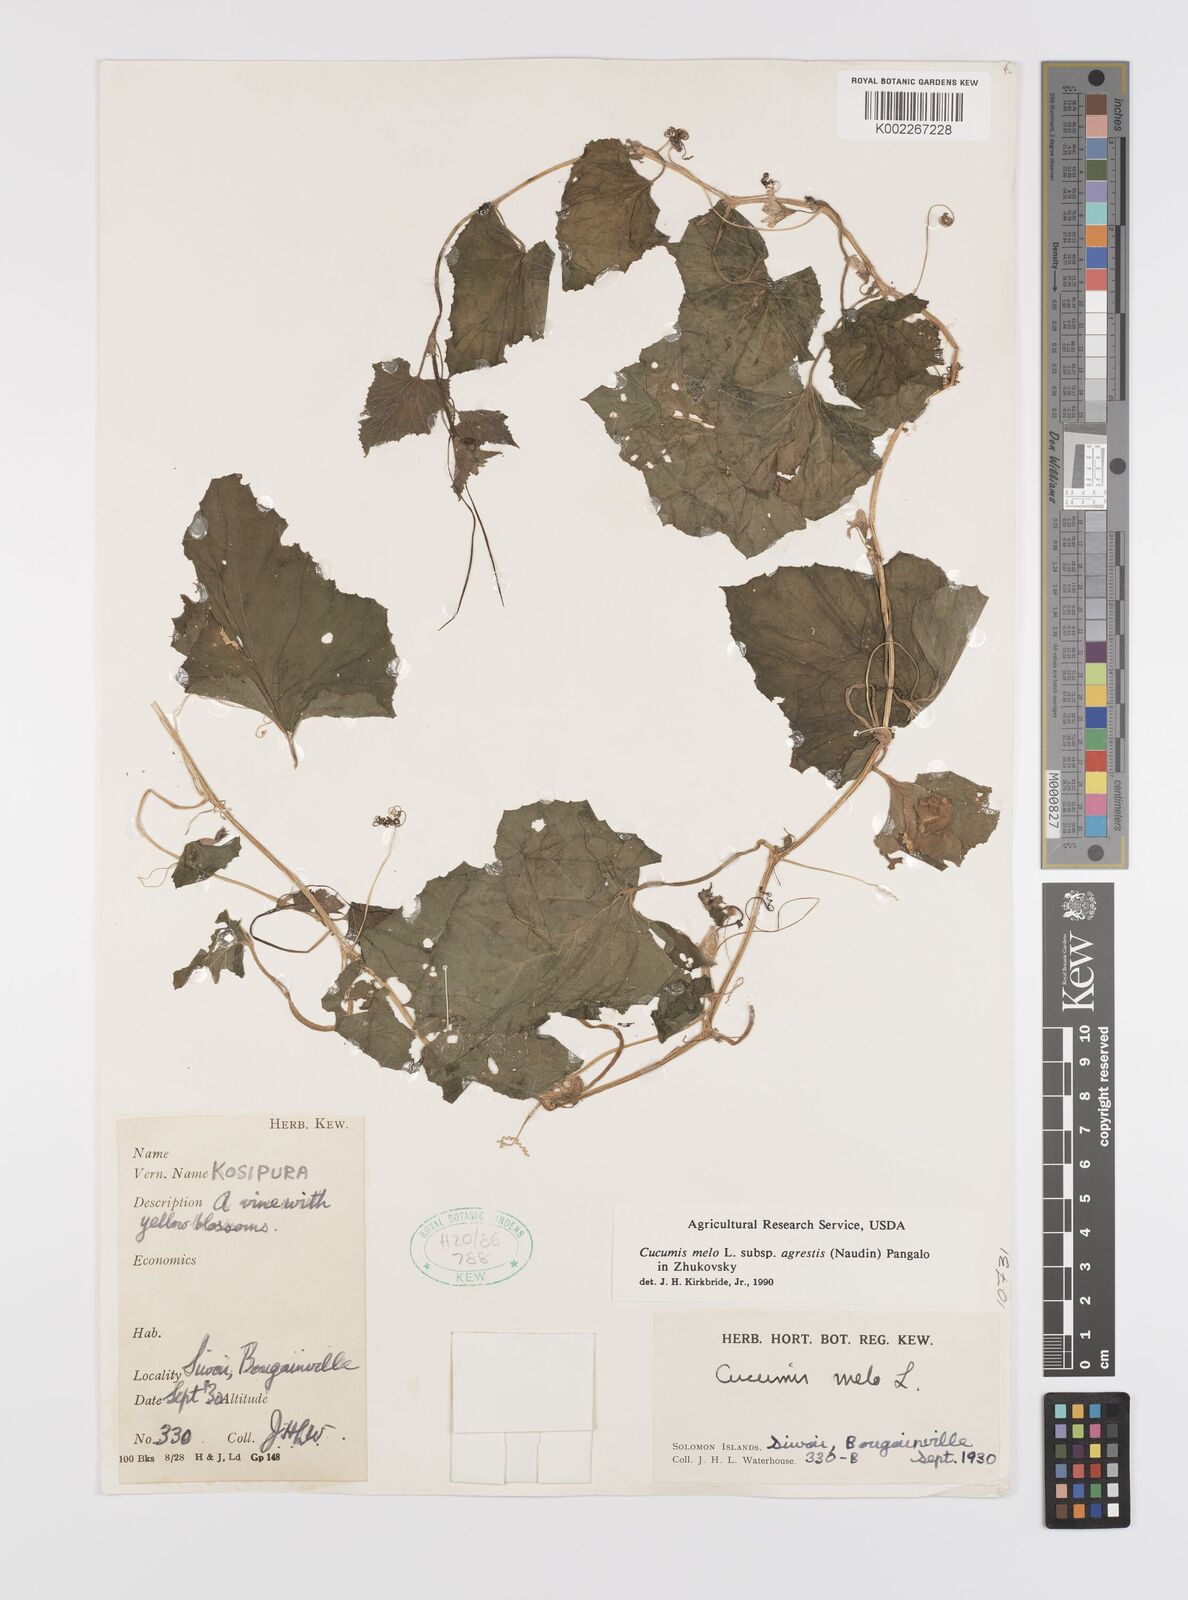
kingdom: Plantae
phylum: Tracheophyta
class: Magnoliopsida
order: Cucurbitales
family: Cucurbitaceae
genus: Cucumis
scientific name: Cucumis melo
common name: Melon
